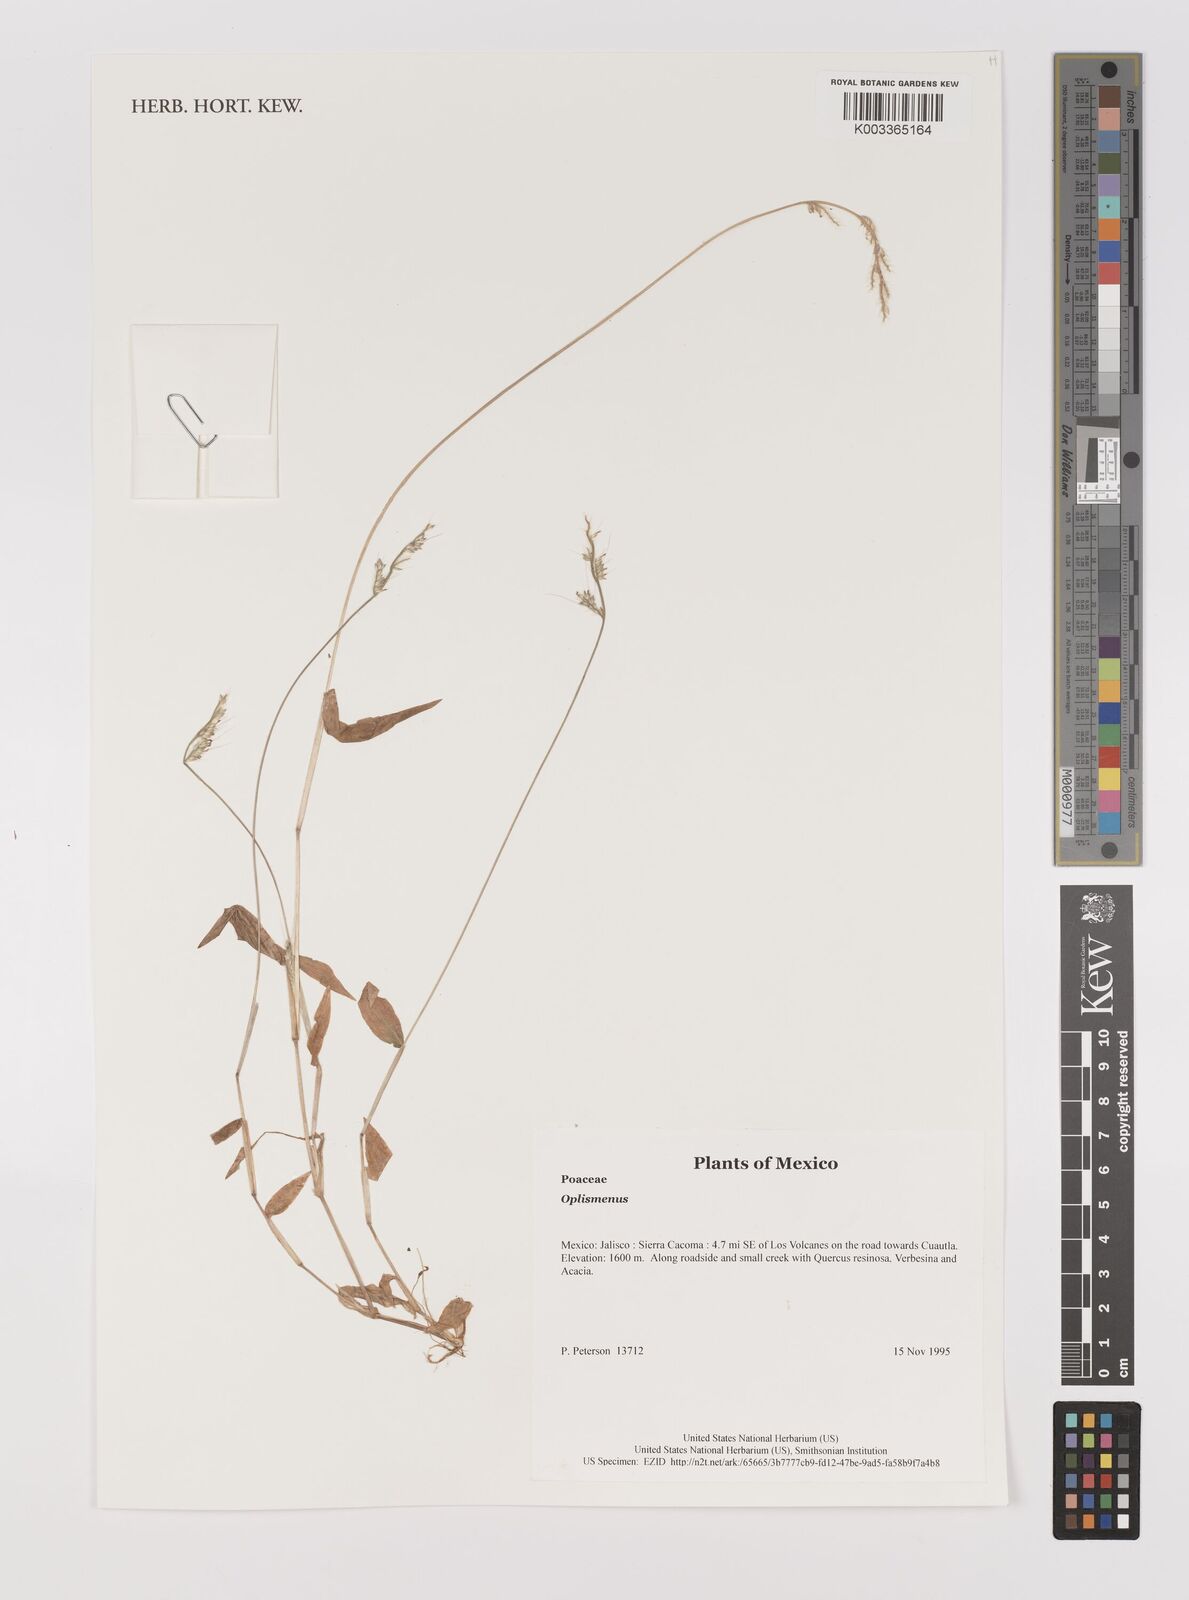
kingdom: Plantae
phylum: Tracheophyta
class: Liliopsida
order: Poales
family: Poaceae
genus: Oplismenus
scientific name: Oplismenus
